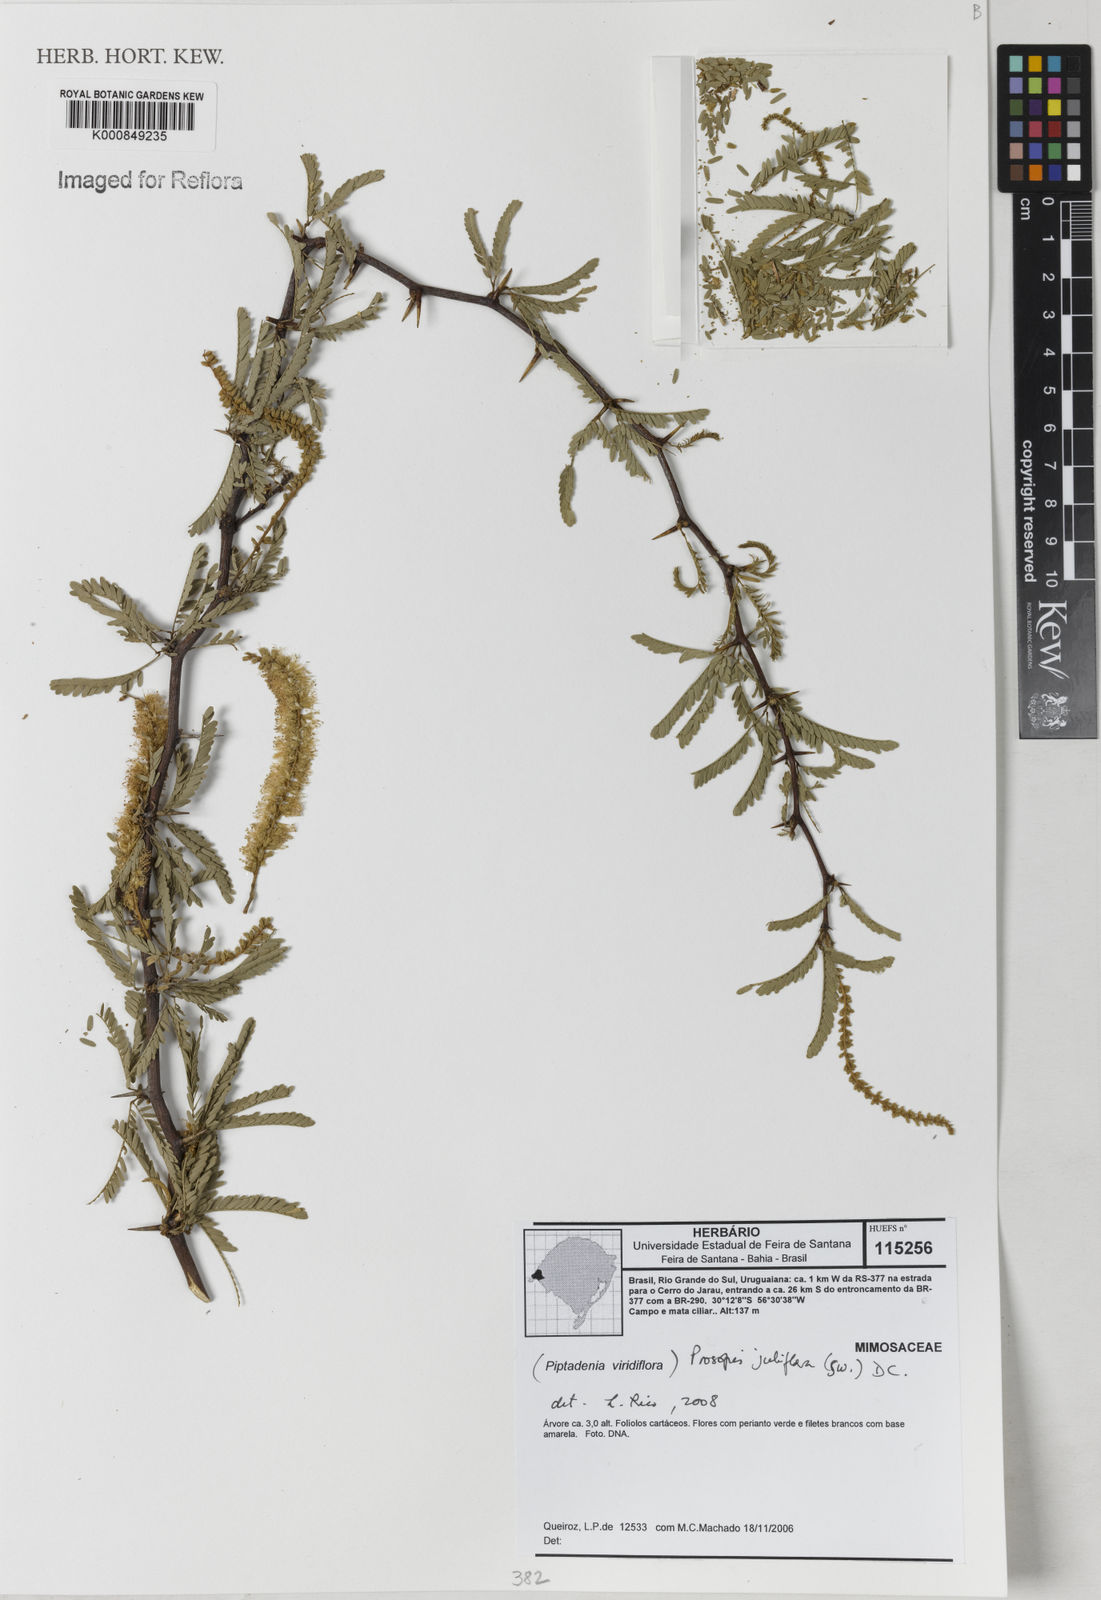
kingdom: Plantae
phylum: Tracheophyta
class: Magnoliopsida
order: Fabales
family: Fabaceae
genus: Prosopis
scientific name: Prosopis juliflora
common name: Mesquite
